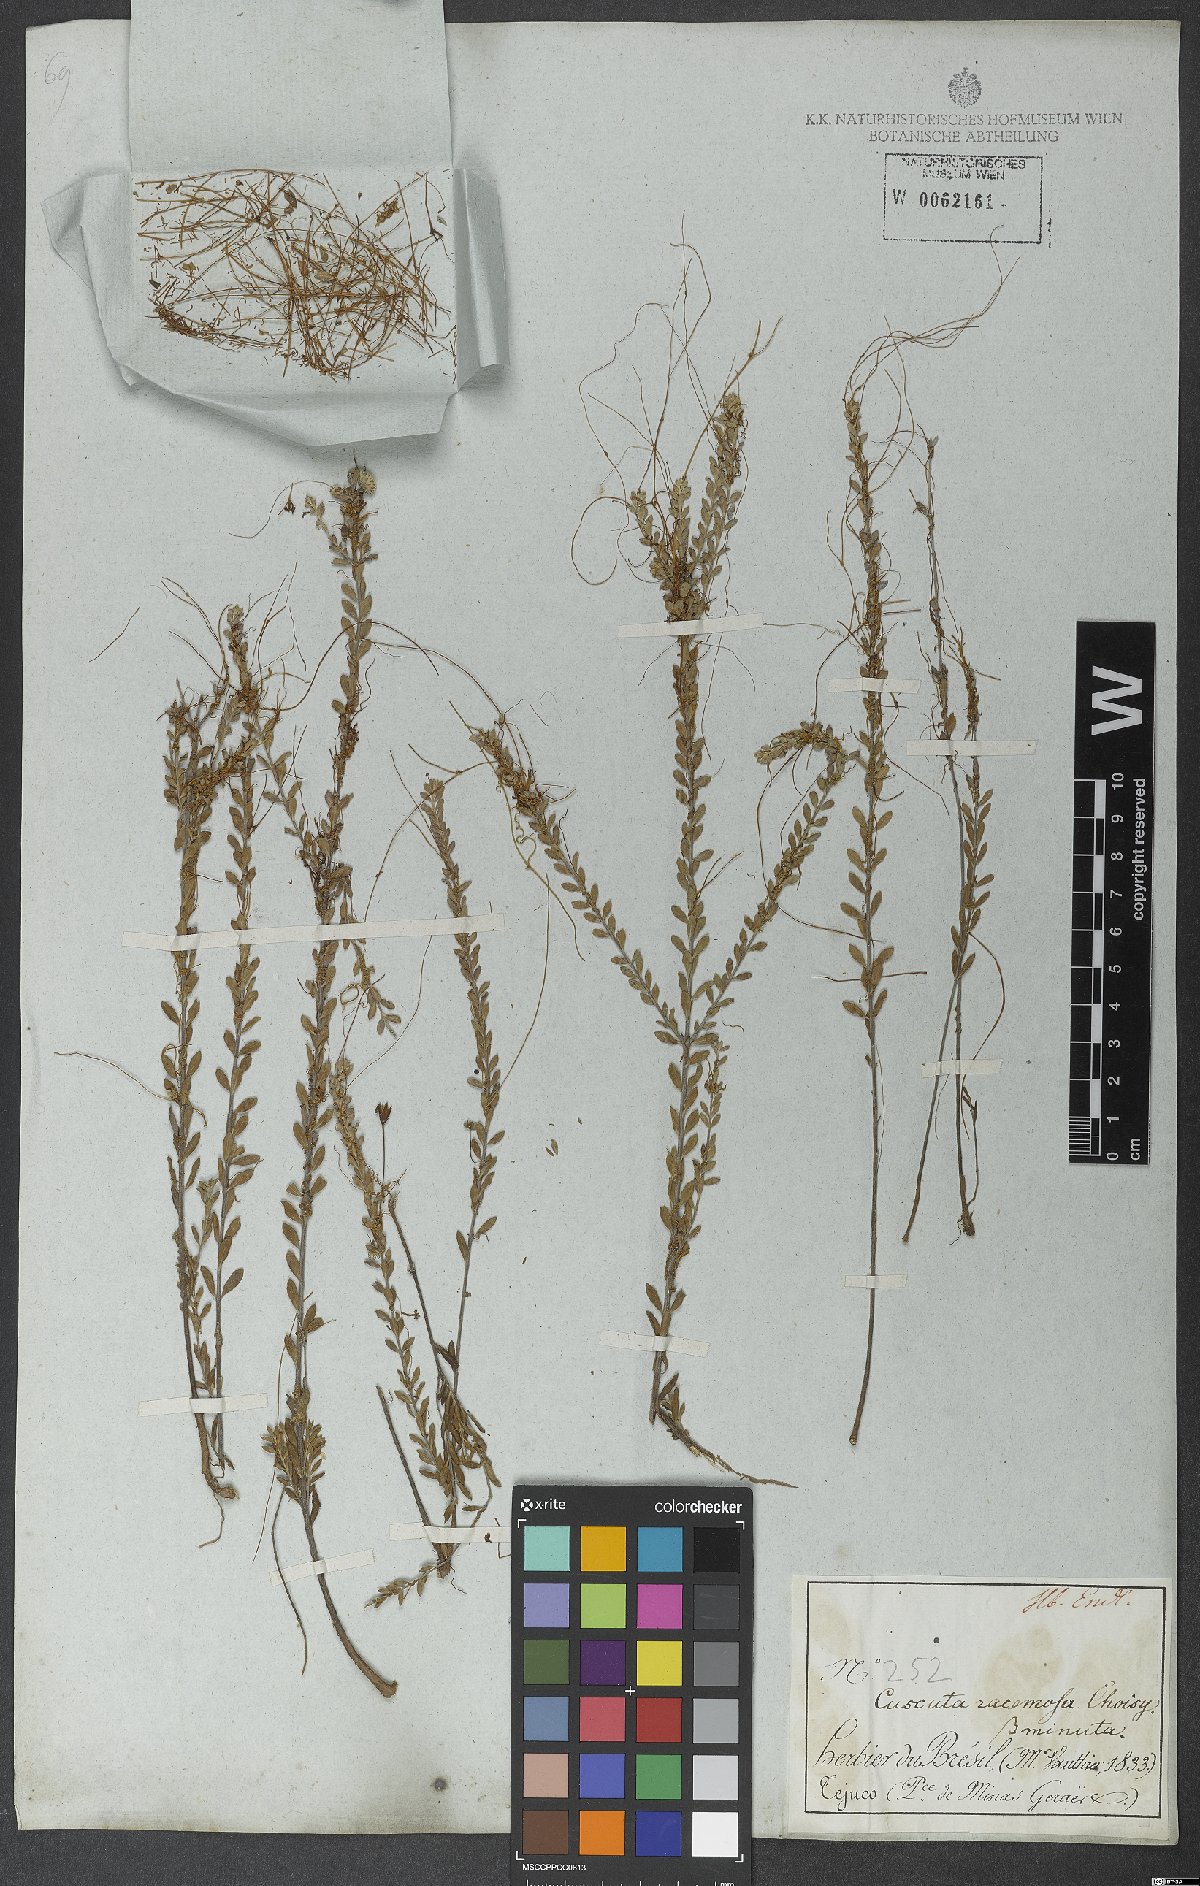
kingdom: Plantae
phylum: Tracheophyta
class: Magnoliopsida
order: Solanales
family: Convolvulaceae
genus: Cuscuta
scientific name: Cuscuta racemosa
